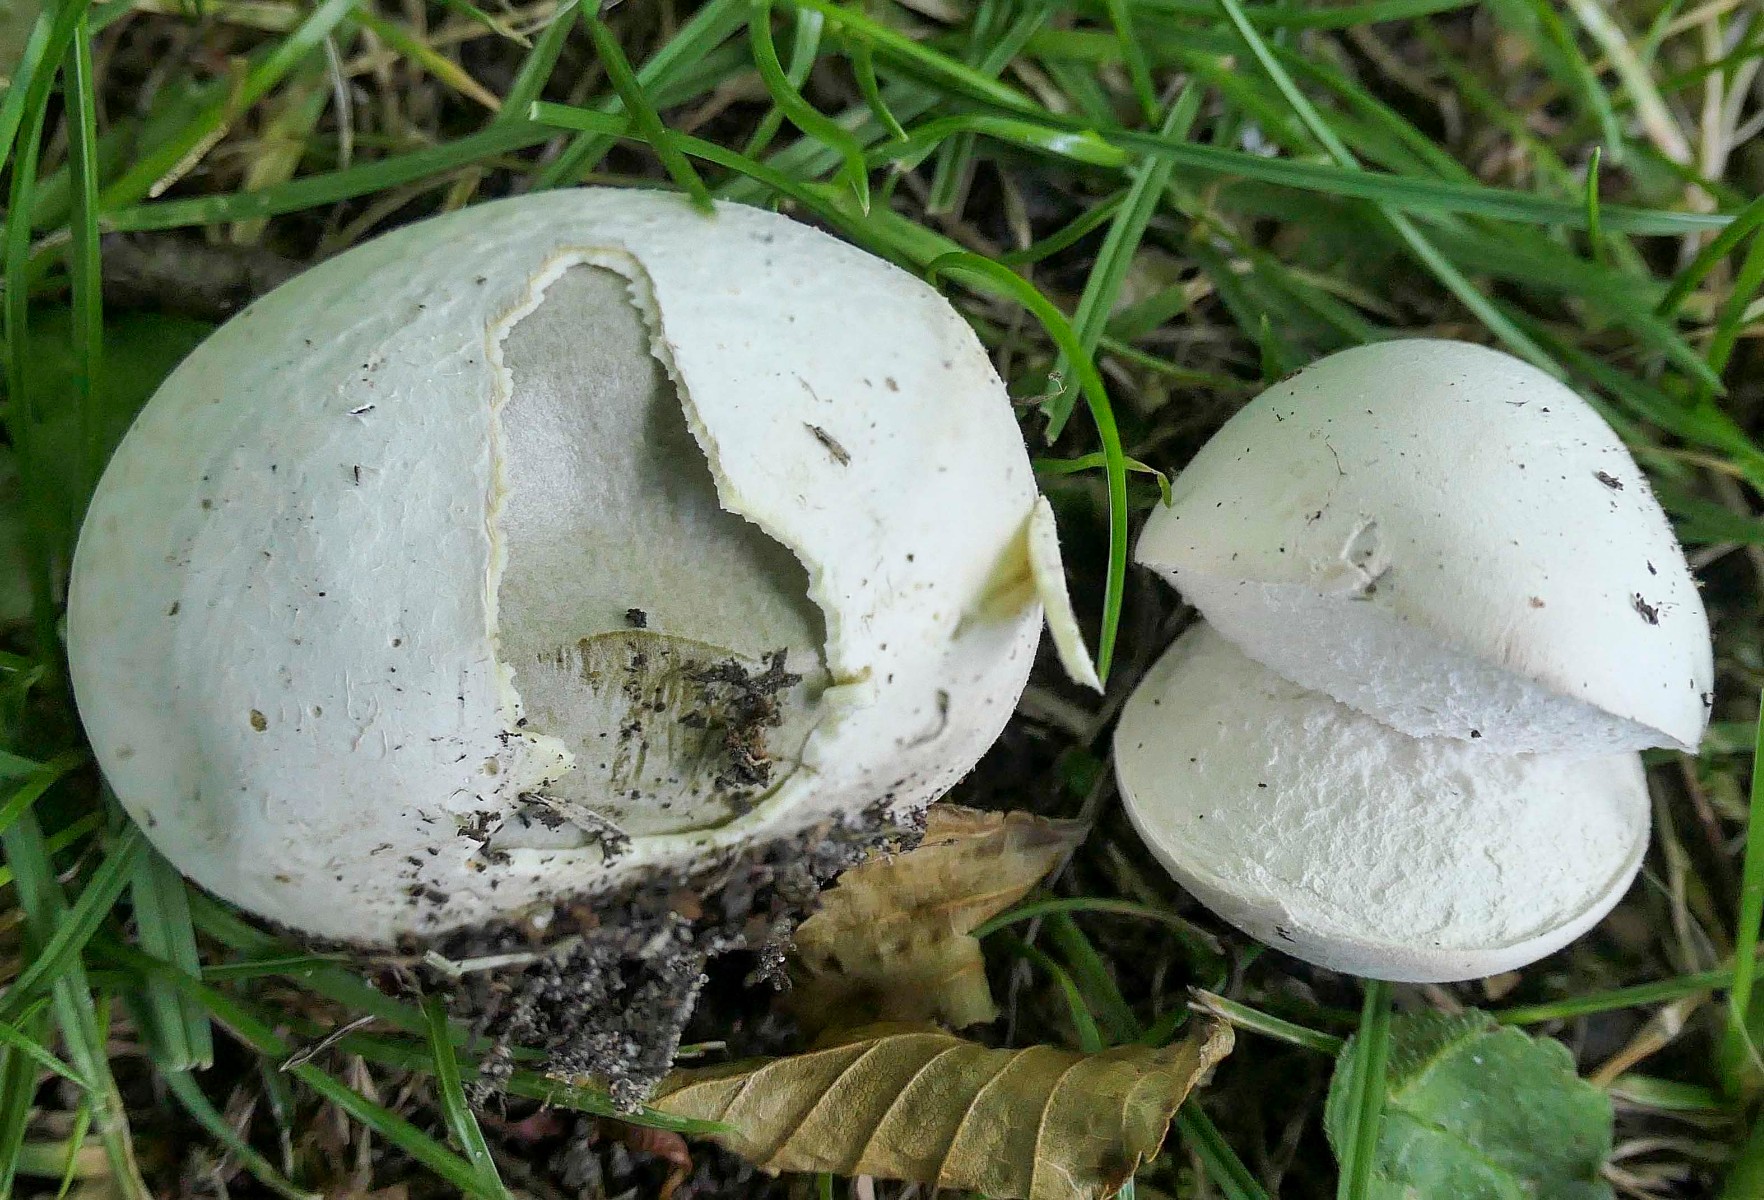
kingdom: Fungi
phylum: Basidiomycota
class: Agaricomycetes
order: Agaricales
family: Lycoperdaceae
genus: Bovista
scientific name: Bovista plumbea
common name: blygrå bovist
